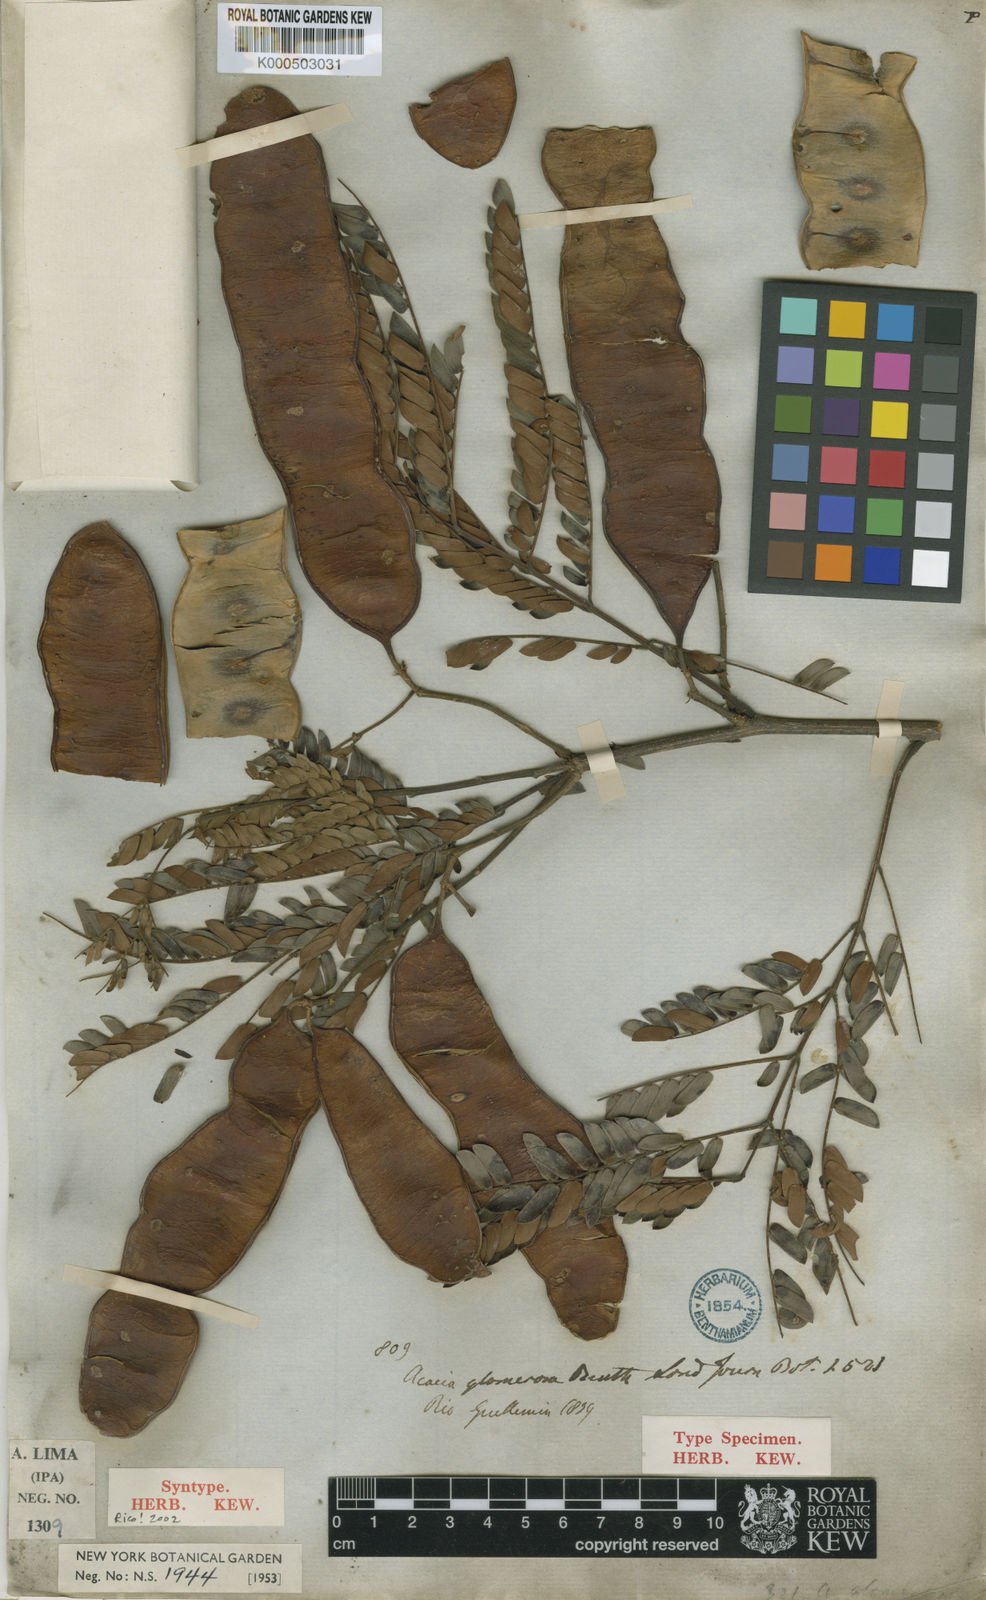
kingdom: Plantae
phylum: Tracheophyta
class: Magnoliopsida
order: Fabales
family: Fabaceae
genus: Senegalia
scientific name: Senegalia polyphylla
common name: White-tamarind
